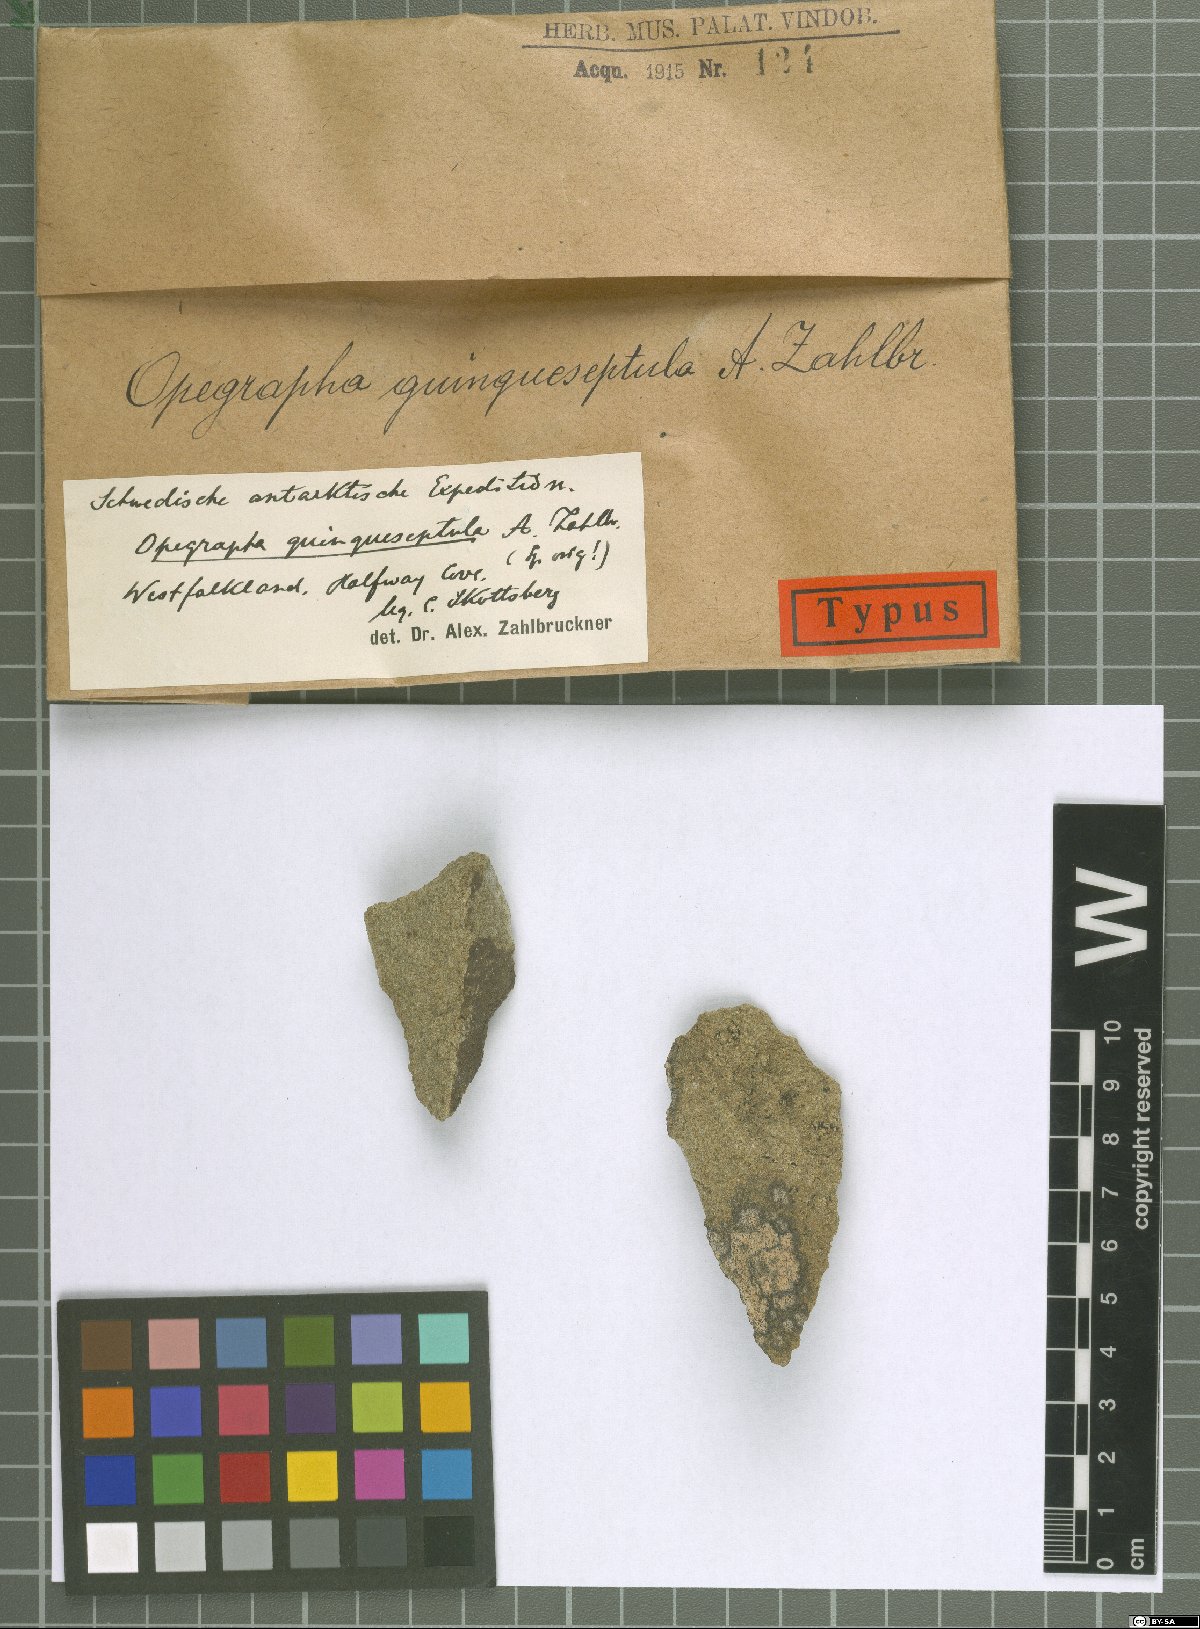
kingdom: Fungi
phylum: Ascomycota
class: Arthoniomycetes
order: Arthoniales
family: Opegraphaceae
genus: Opegrapha
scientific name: Opegrapha
